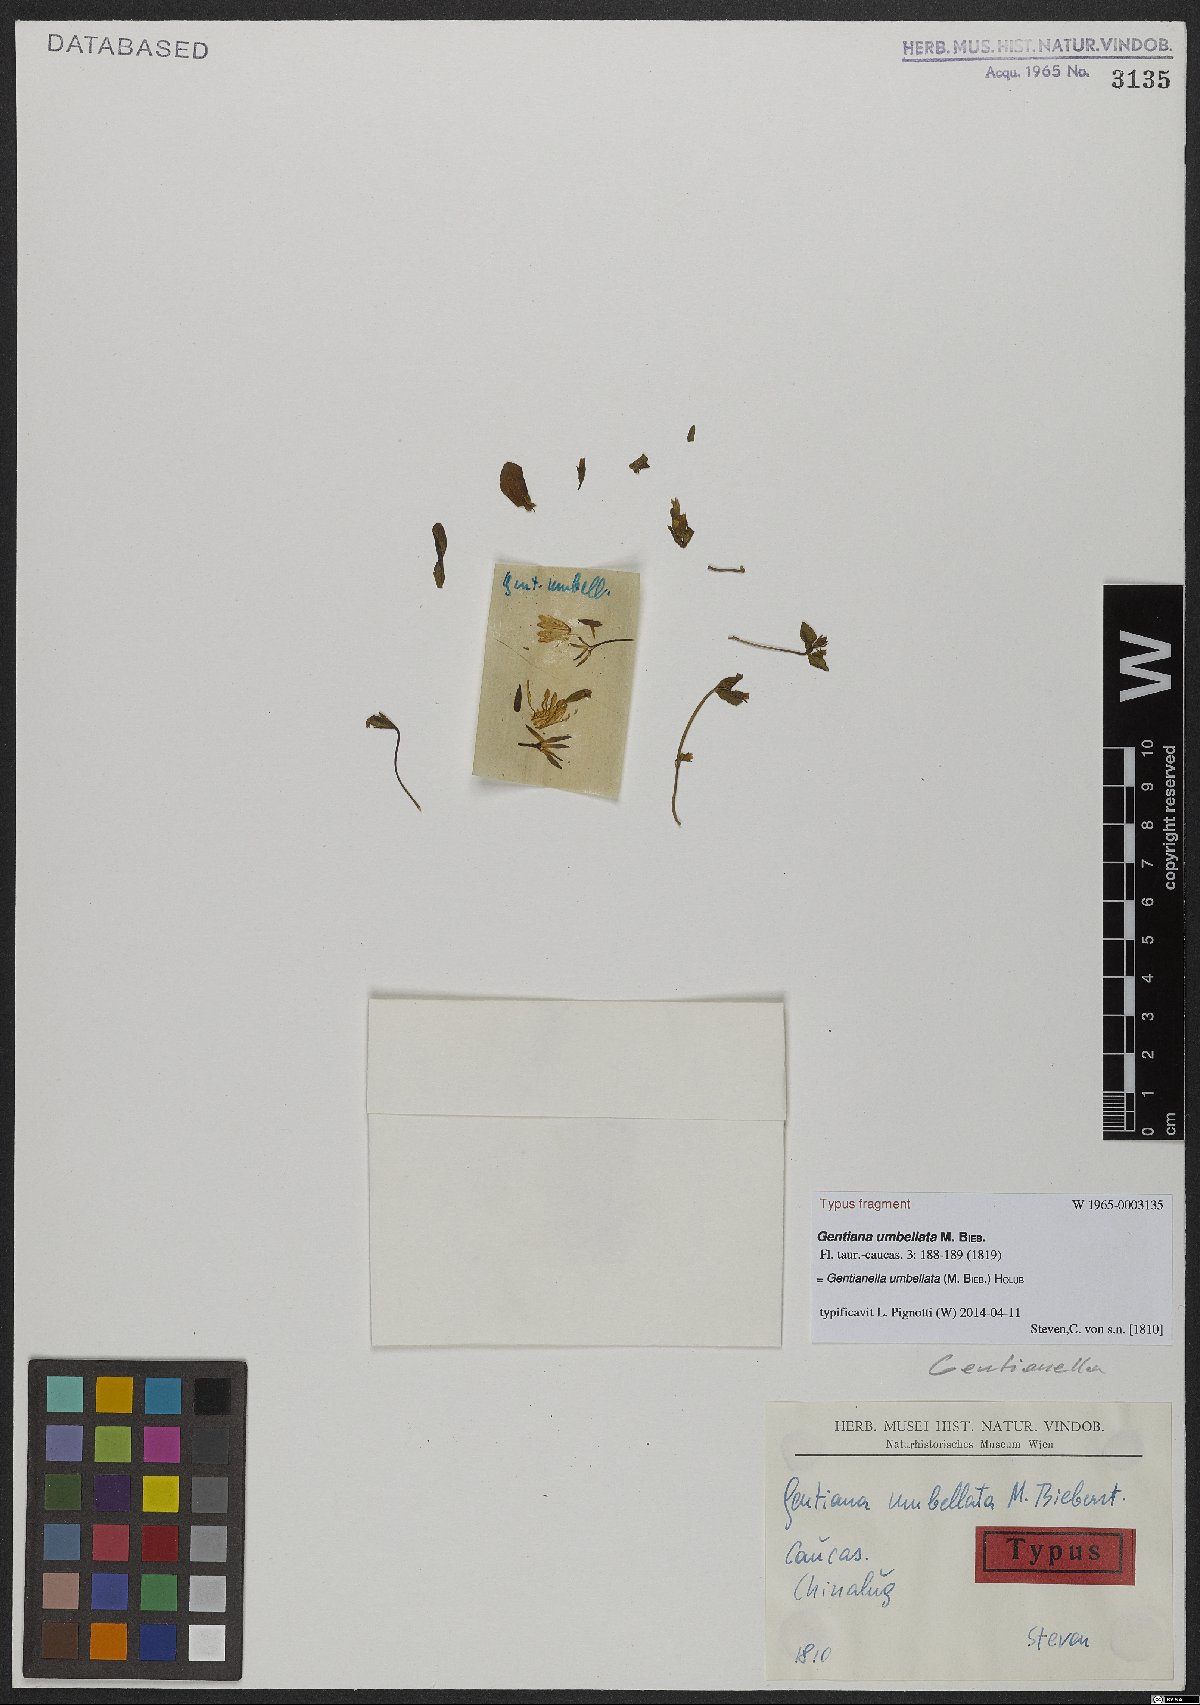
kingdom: Plantae
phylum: Tracheophyta
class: Magnoliopsida
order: Gentianales
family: Gentianaceae
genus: Gentianella
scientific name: Gentianella umbellata
